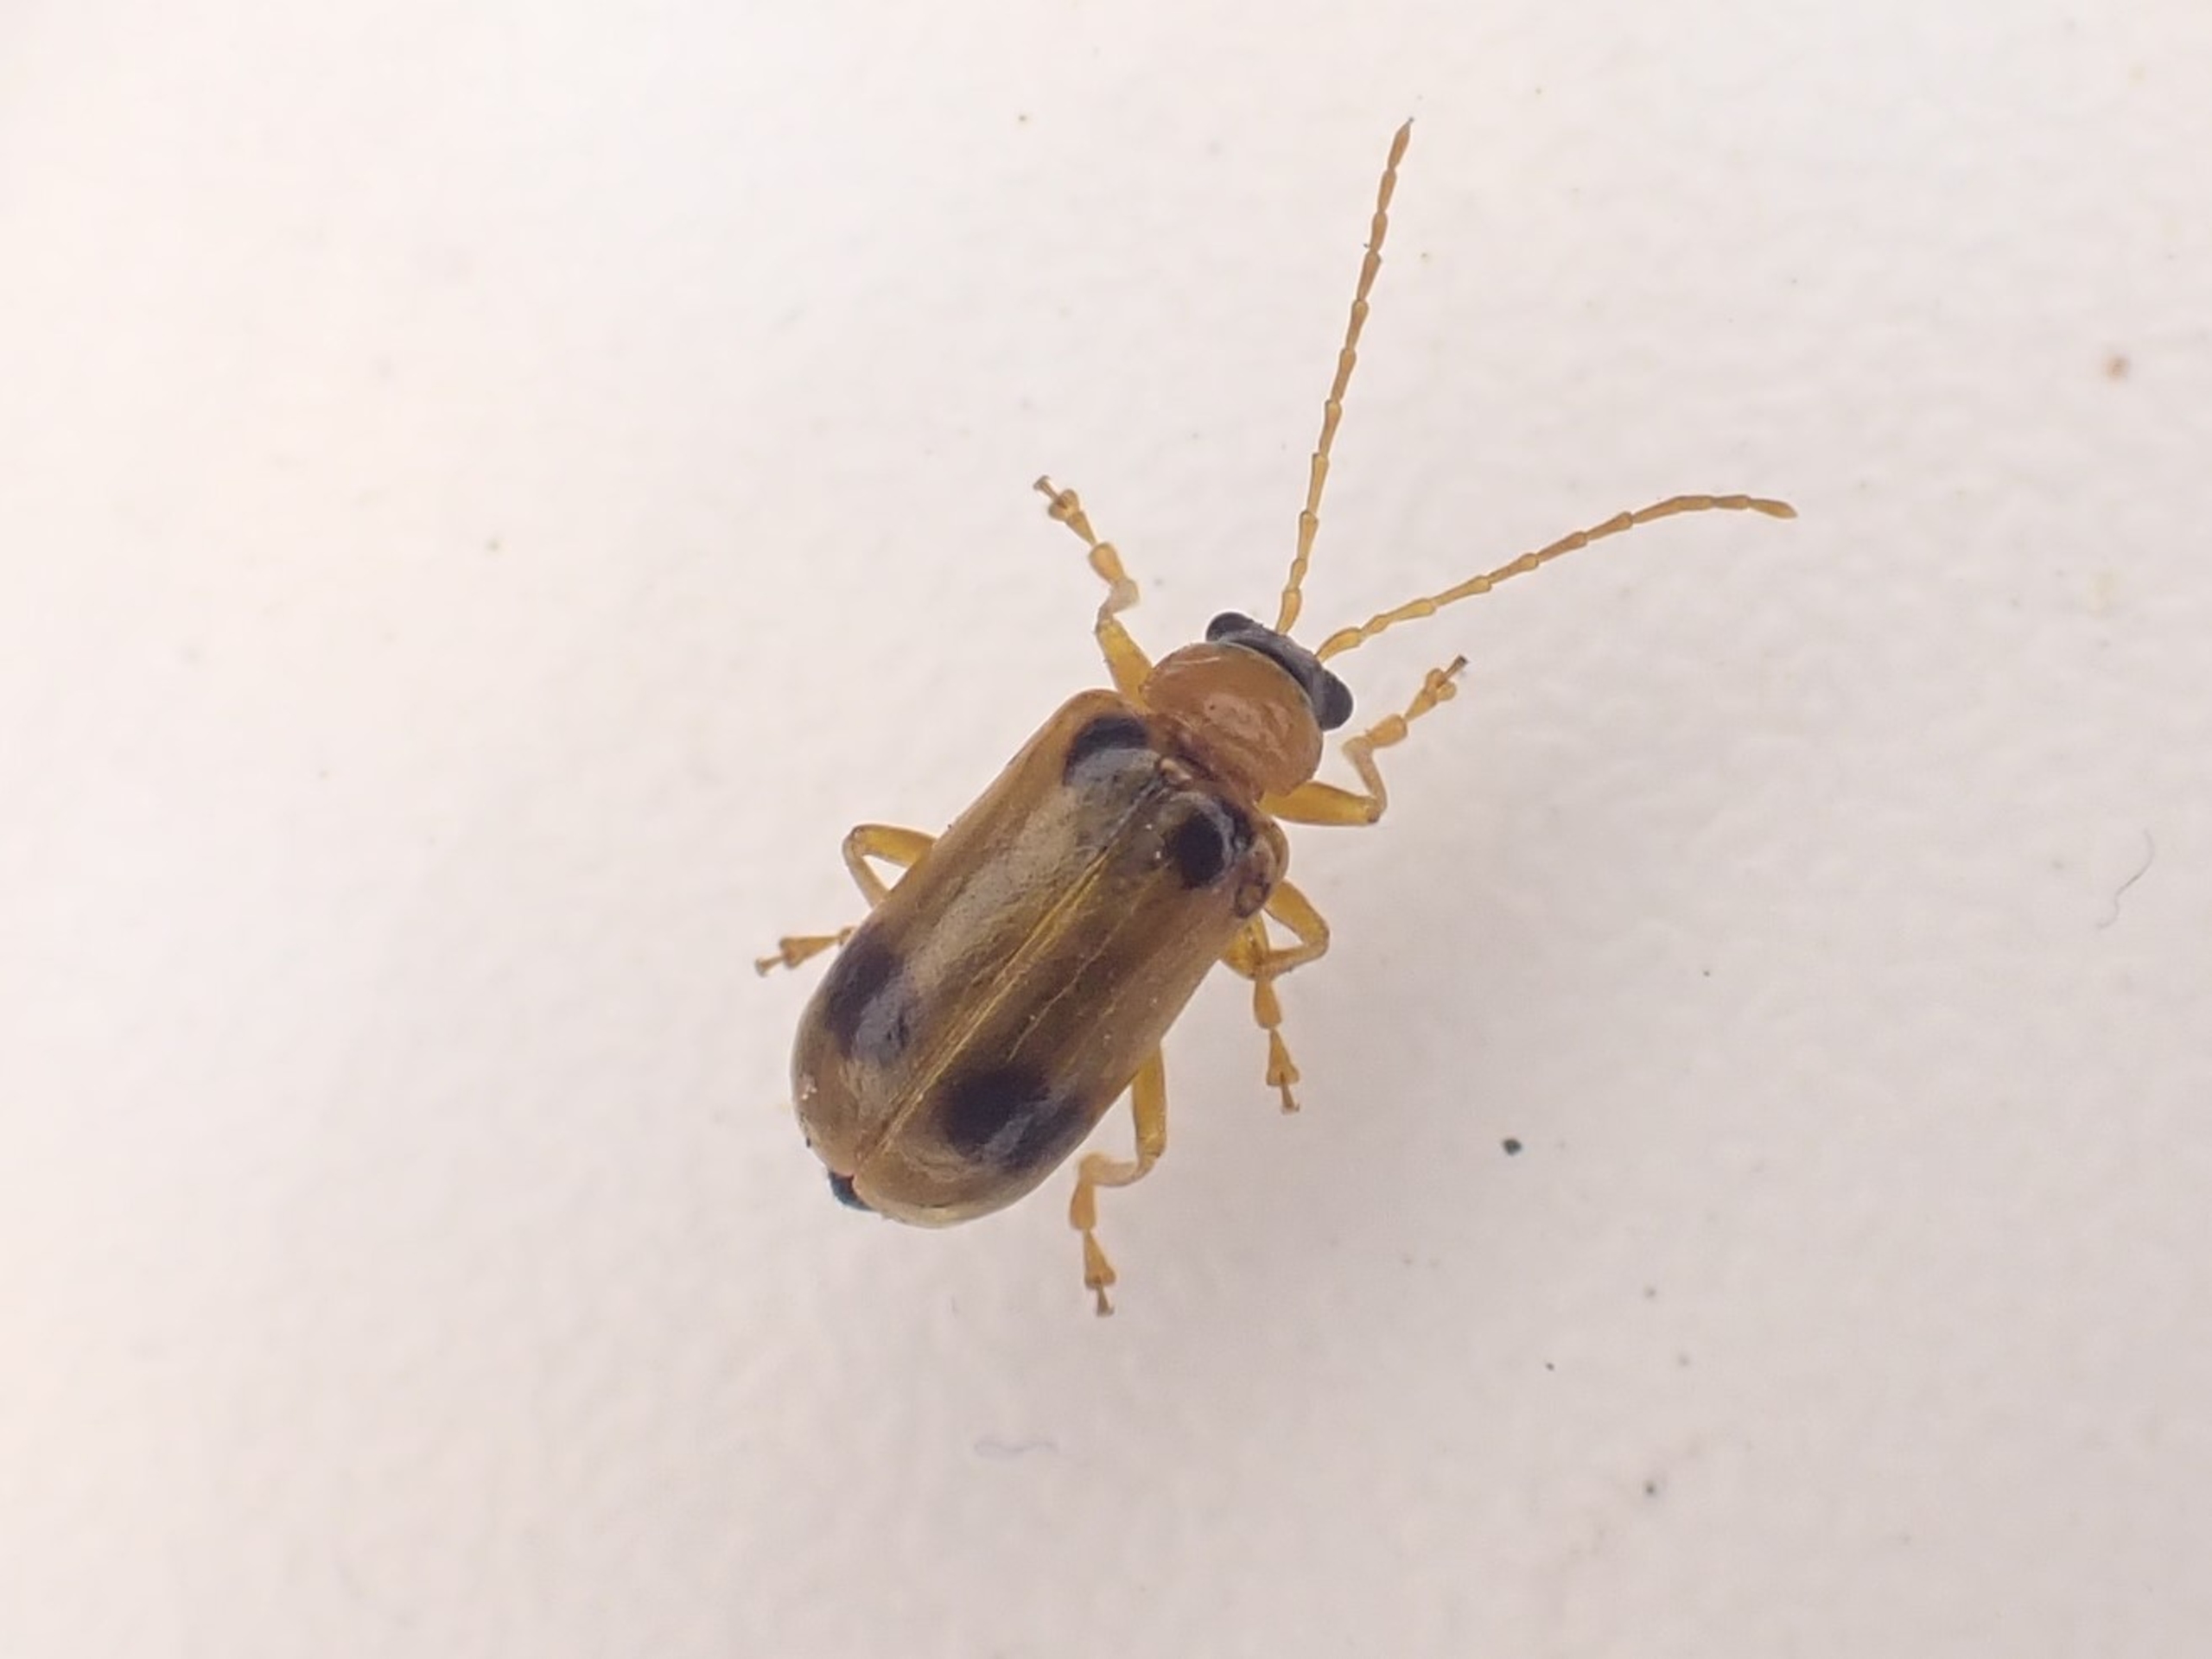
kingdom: Animalia
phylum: Arthropoda
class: Insecta
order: Coleoptera
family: Chrysomelidae
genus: Phyllobrotica
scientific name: Phyllobrotica quadrimaculata
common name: Sortplettet bladbille
